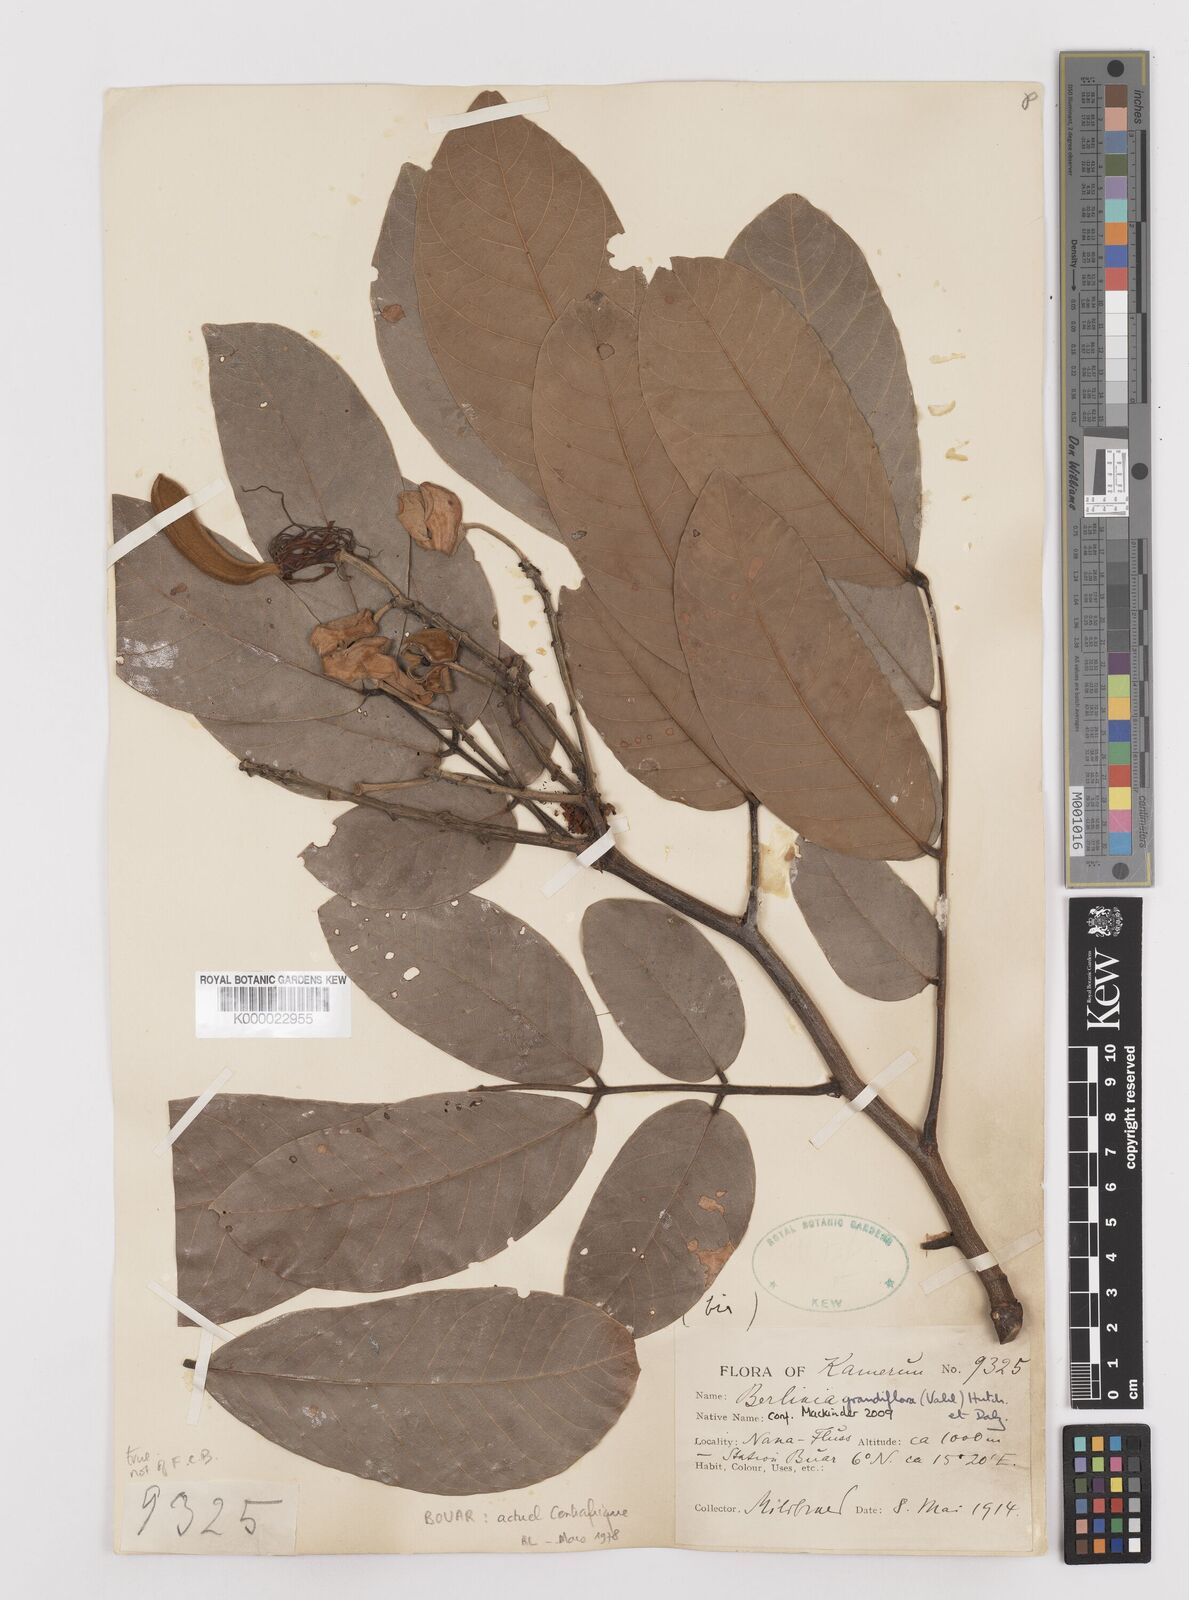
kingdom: Plantae
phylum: Tracheophyta
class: Magnoliopsida
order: Fabales
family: Fabaceae
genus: Berlinia
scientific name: Berlinia grandiflora
